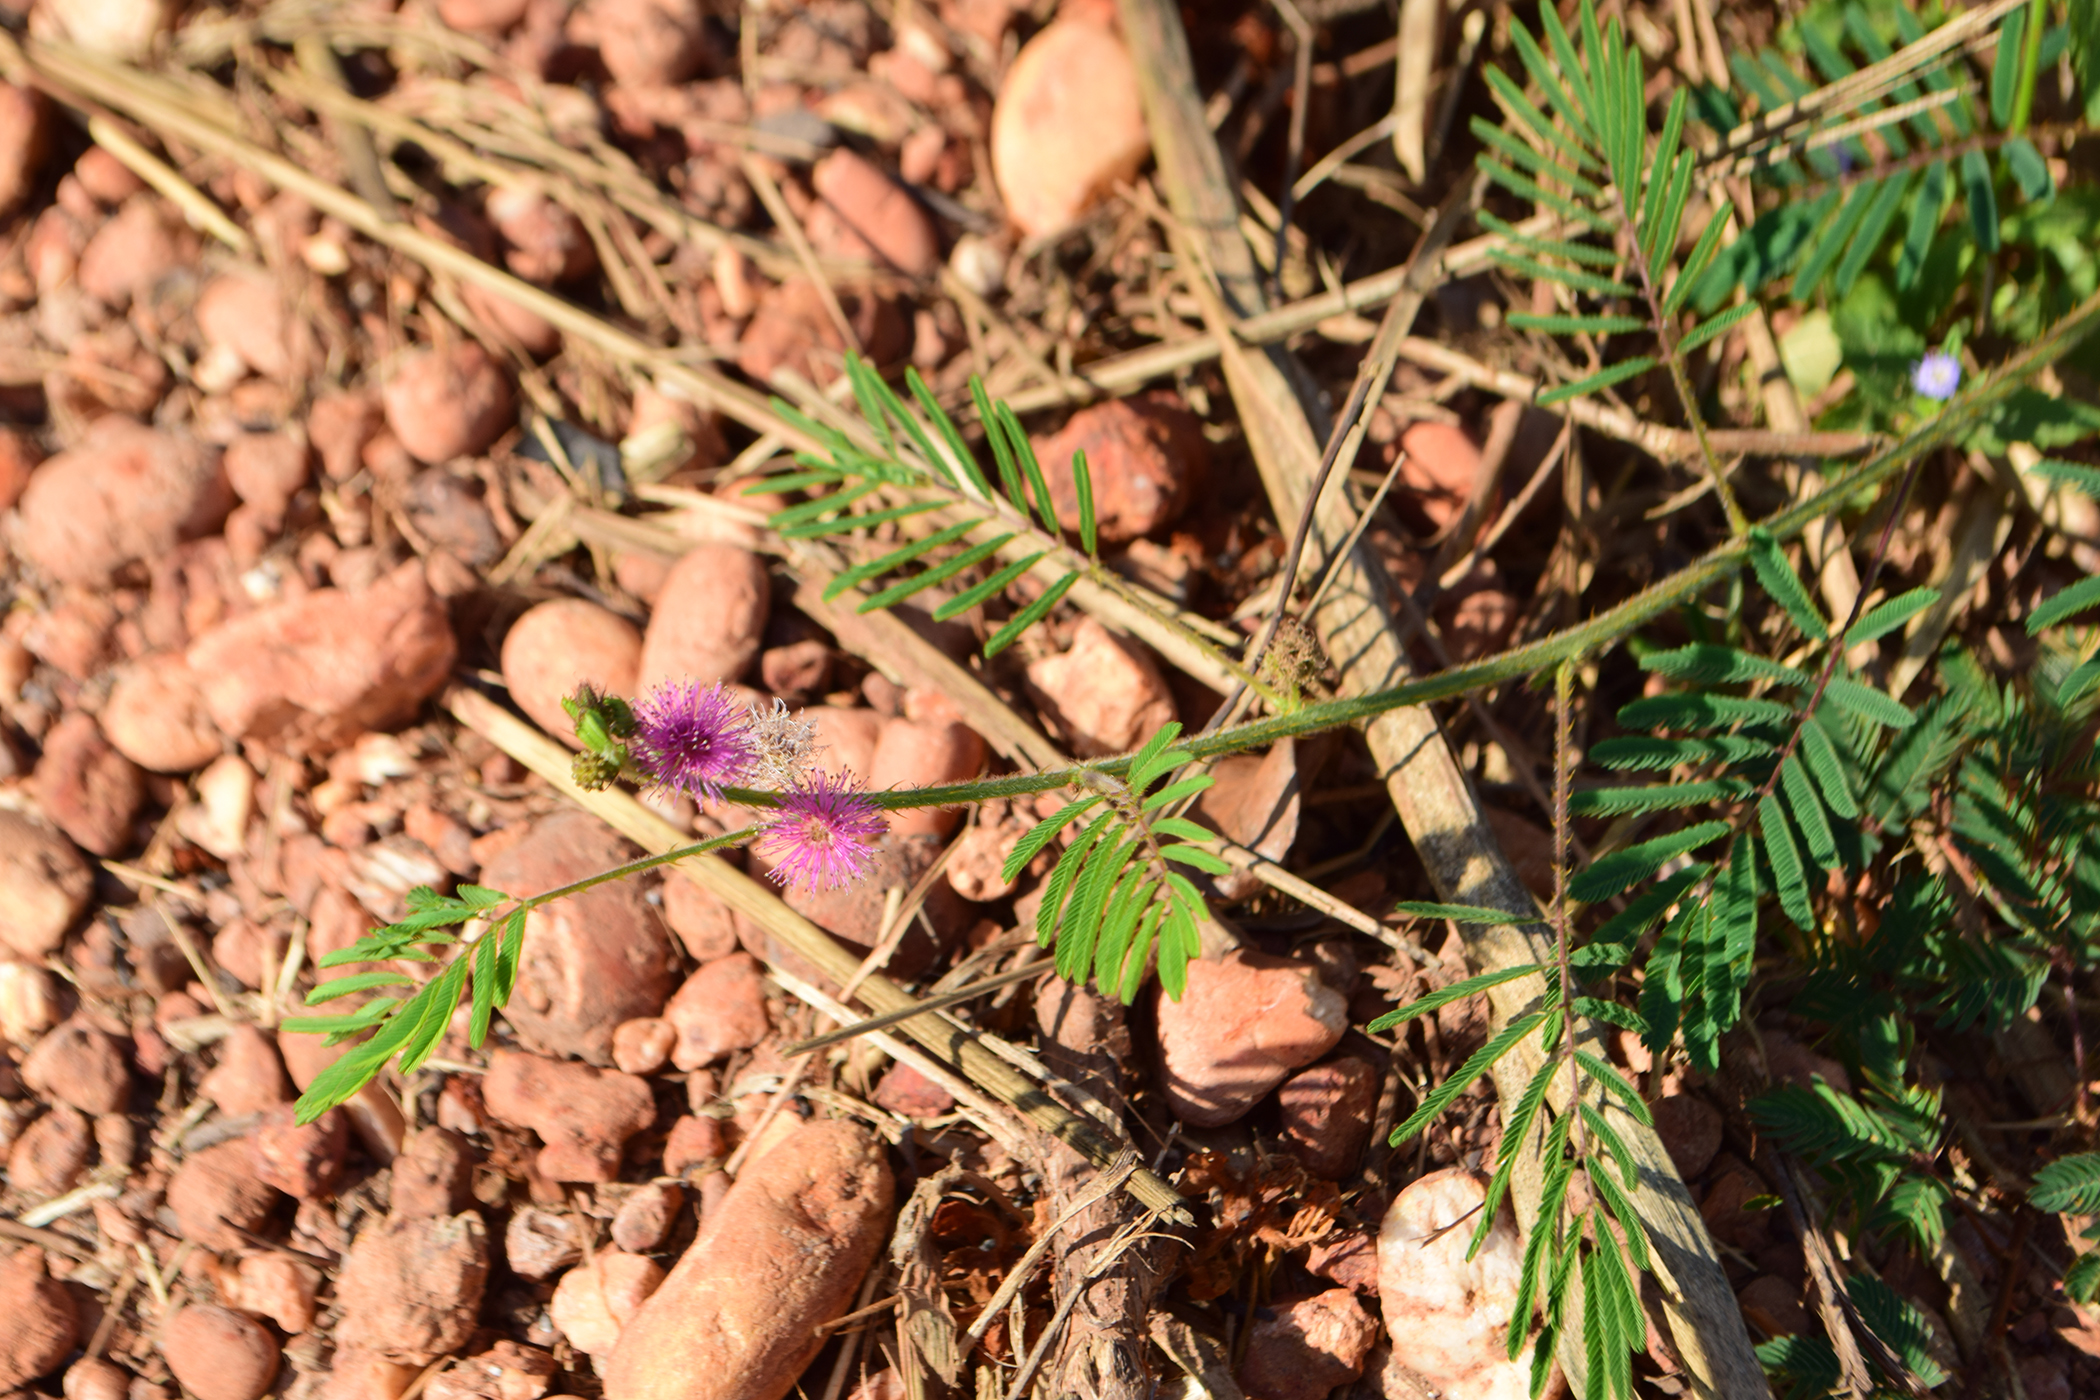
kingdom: Plantae
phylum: Tracheophyta
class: Magnoliopsida
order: Fabales
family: Fabaceae
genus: Mimosa
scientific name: Mimosa diplotricha
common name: Giant sensitive-plant
